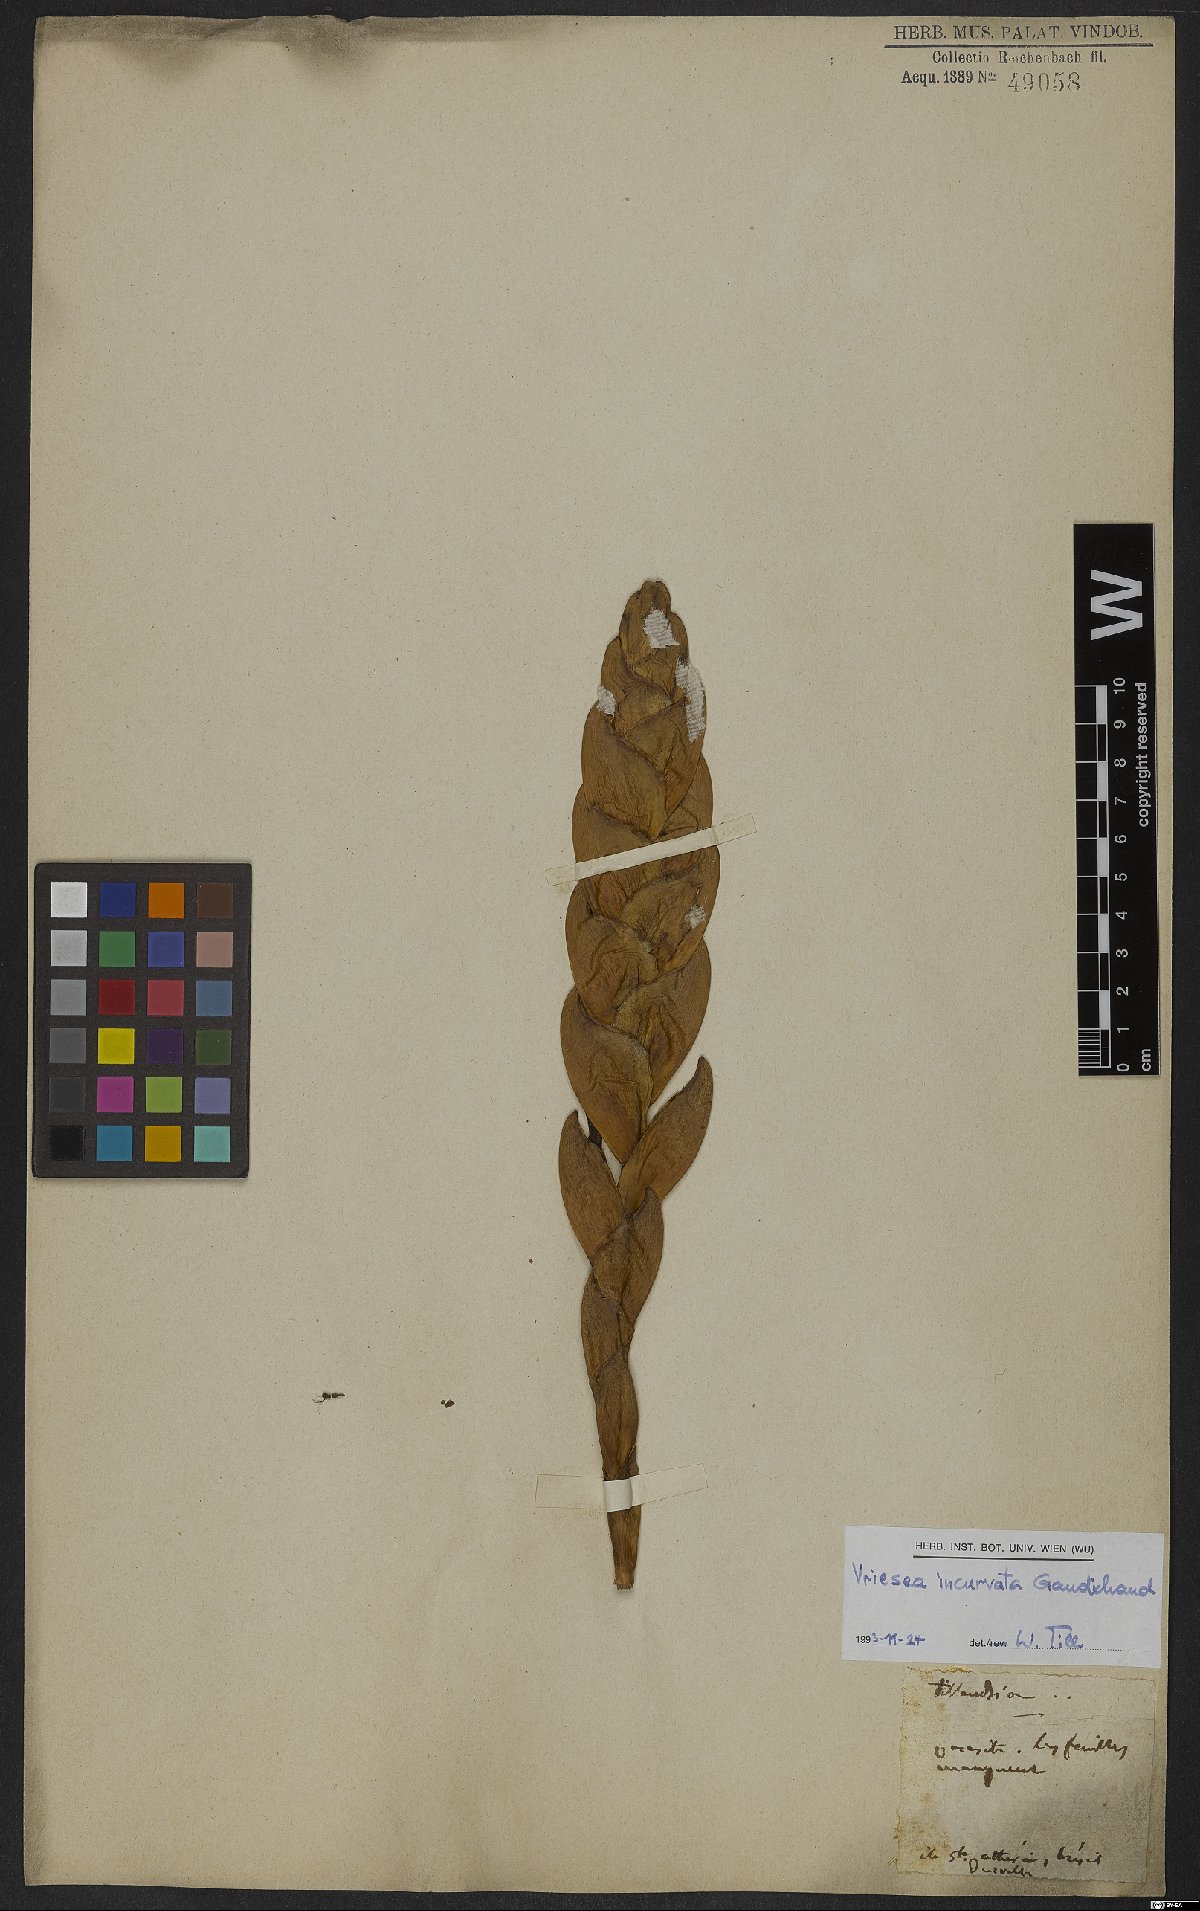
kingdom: Plantae
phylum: Tracheophyta
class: Liliopsida
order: Poales
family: Bromeliaceae
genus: Vriesea
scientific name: Vriesea incurvata
